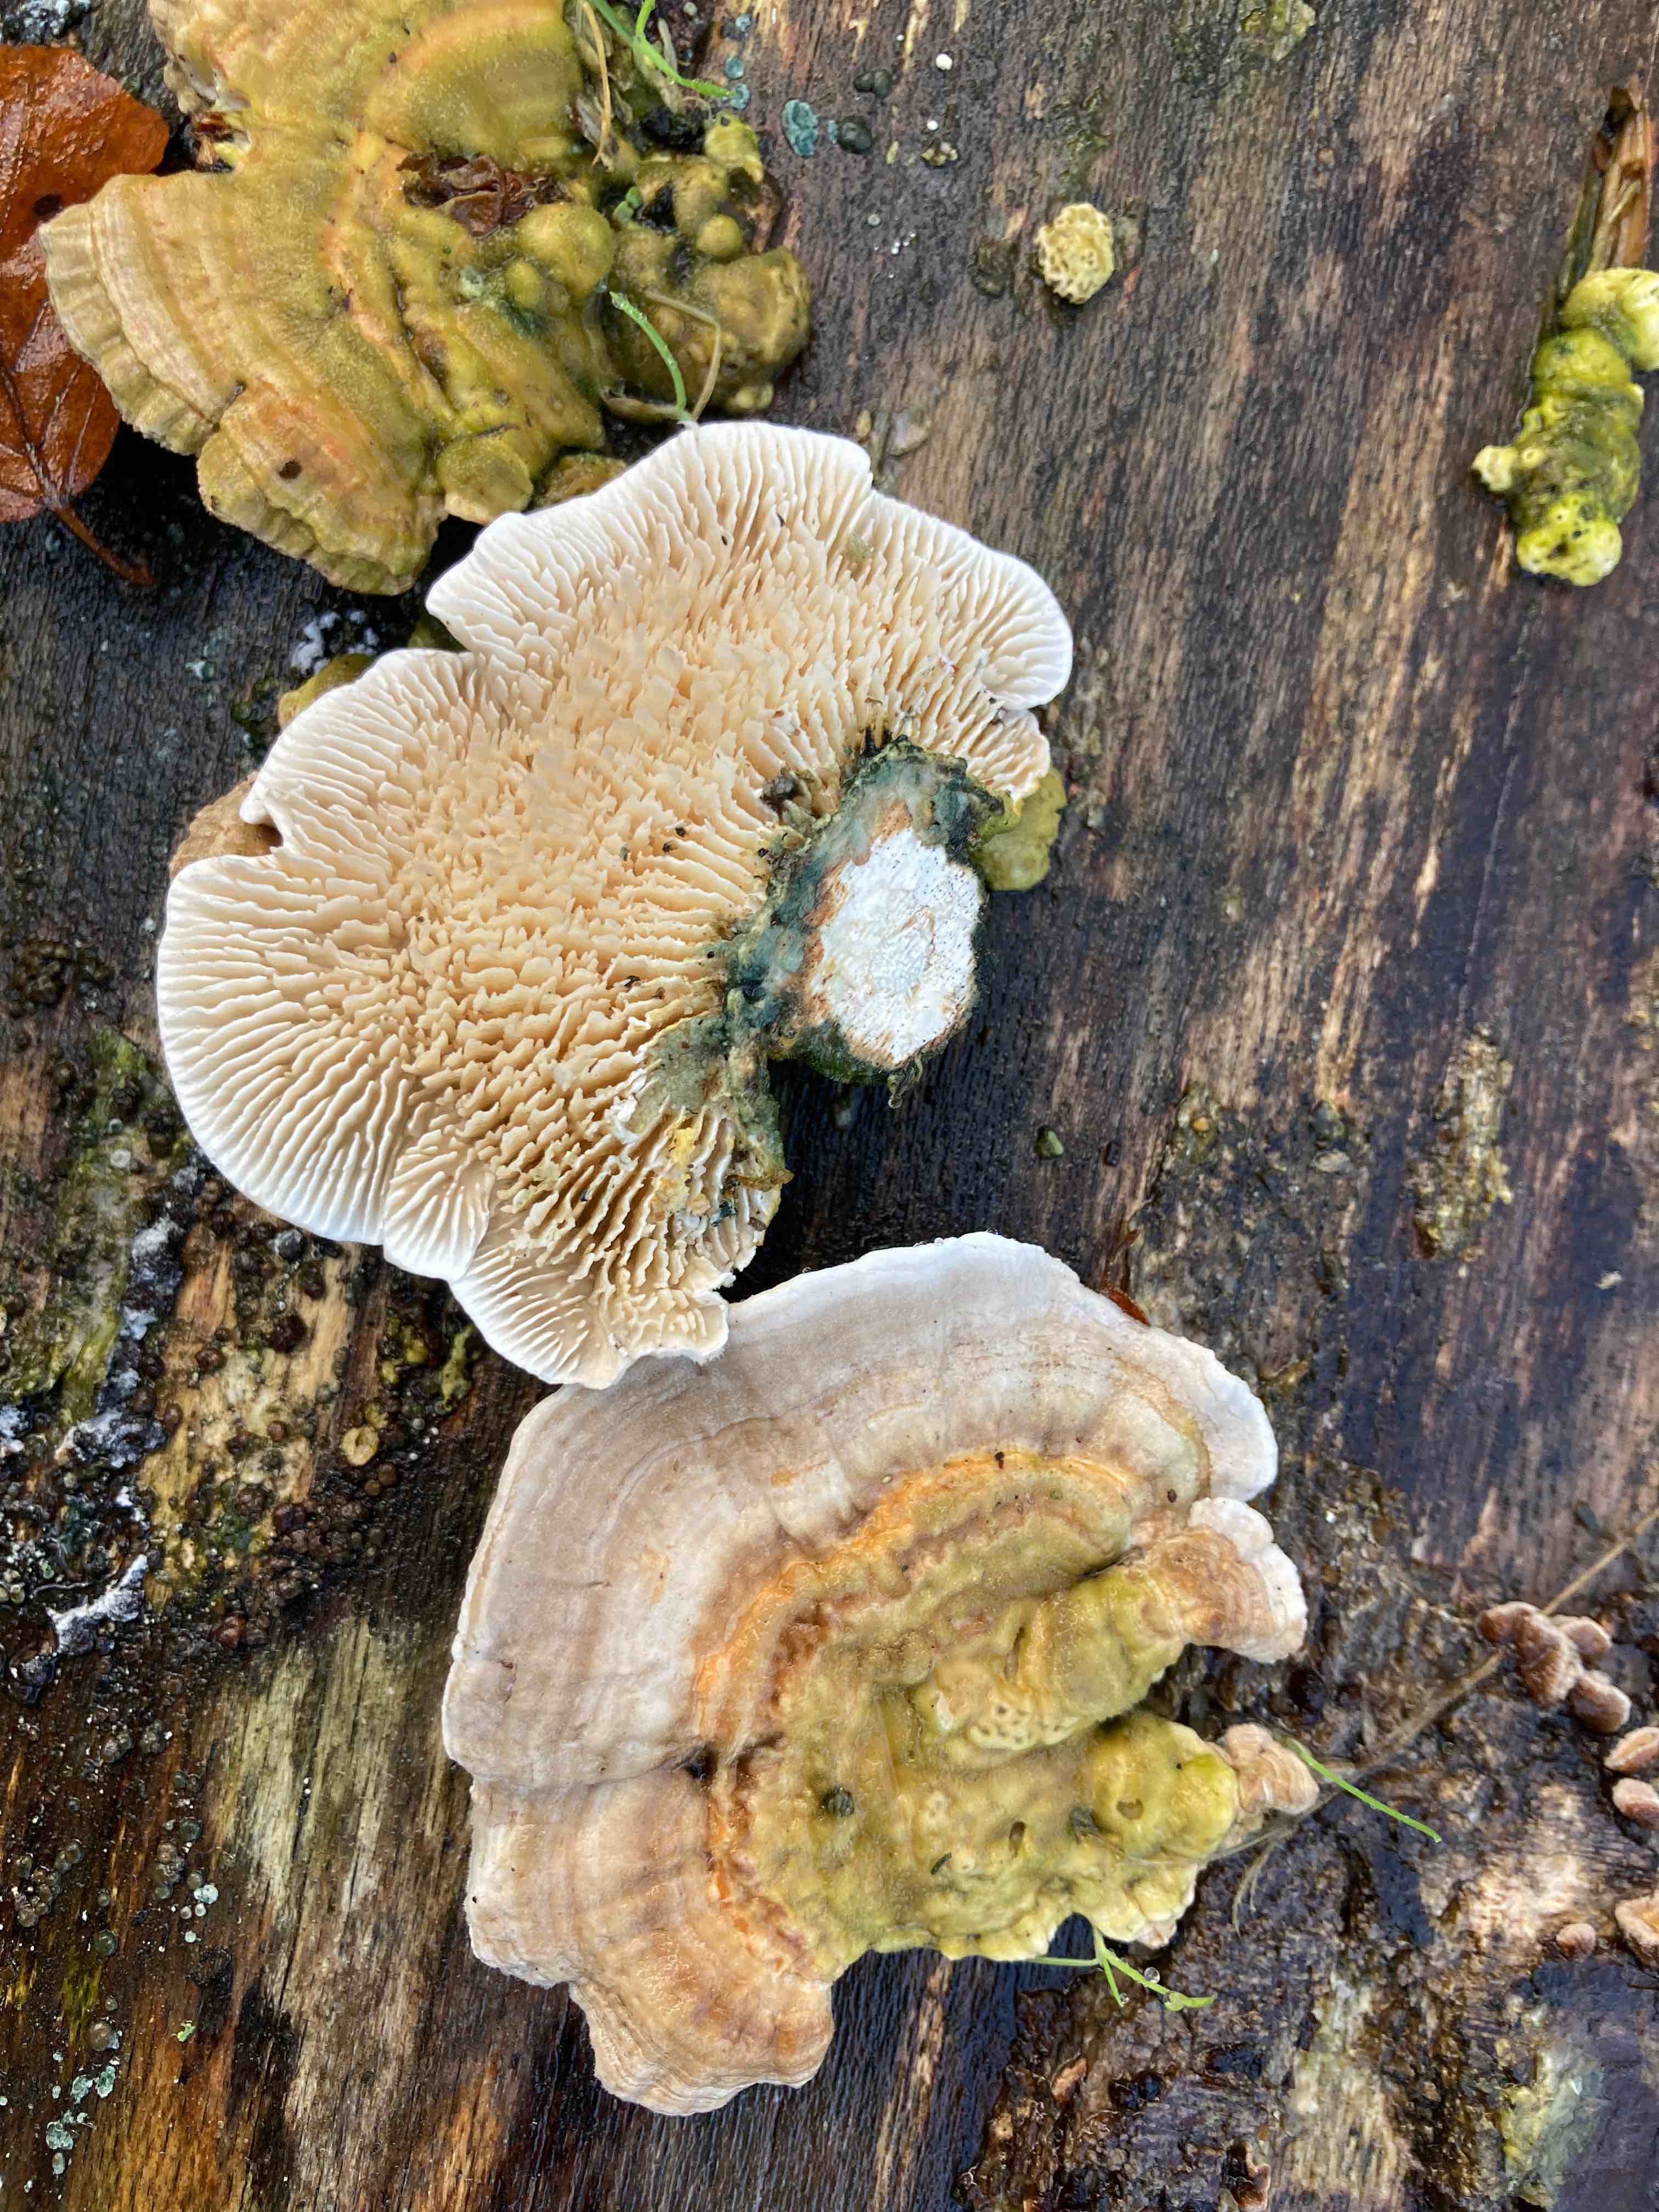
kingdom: Fungi
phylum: Basidiomycota
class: Agaricomycetes
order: Polyporales
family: Polyporaceae
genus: Lenzites
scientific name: Lenzites betulinus
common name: birke-læderporesvamp
